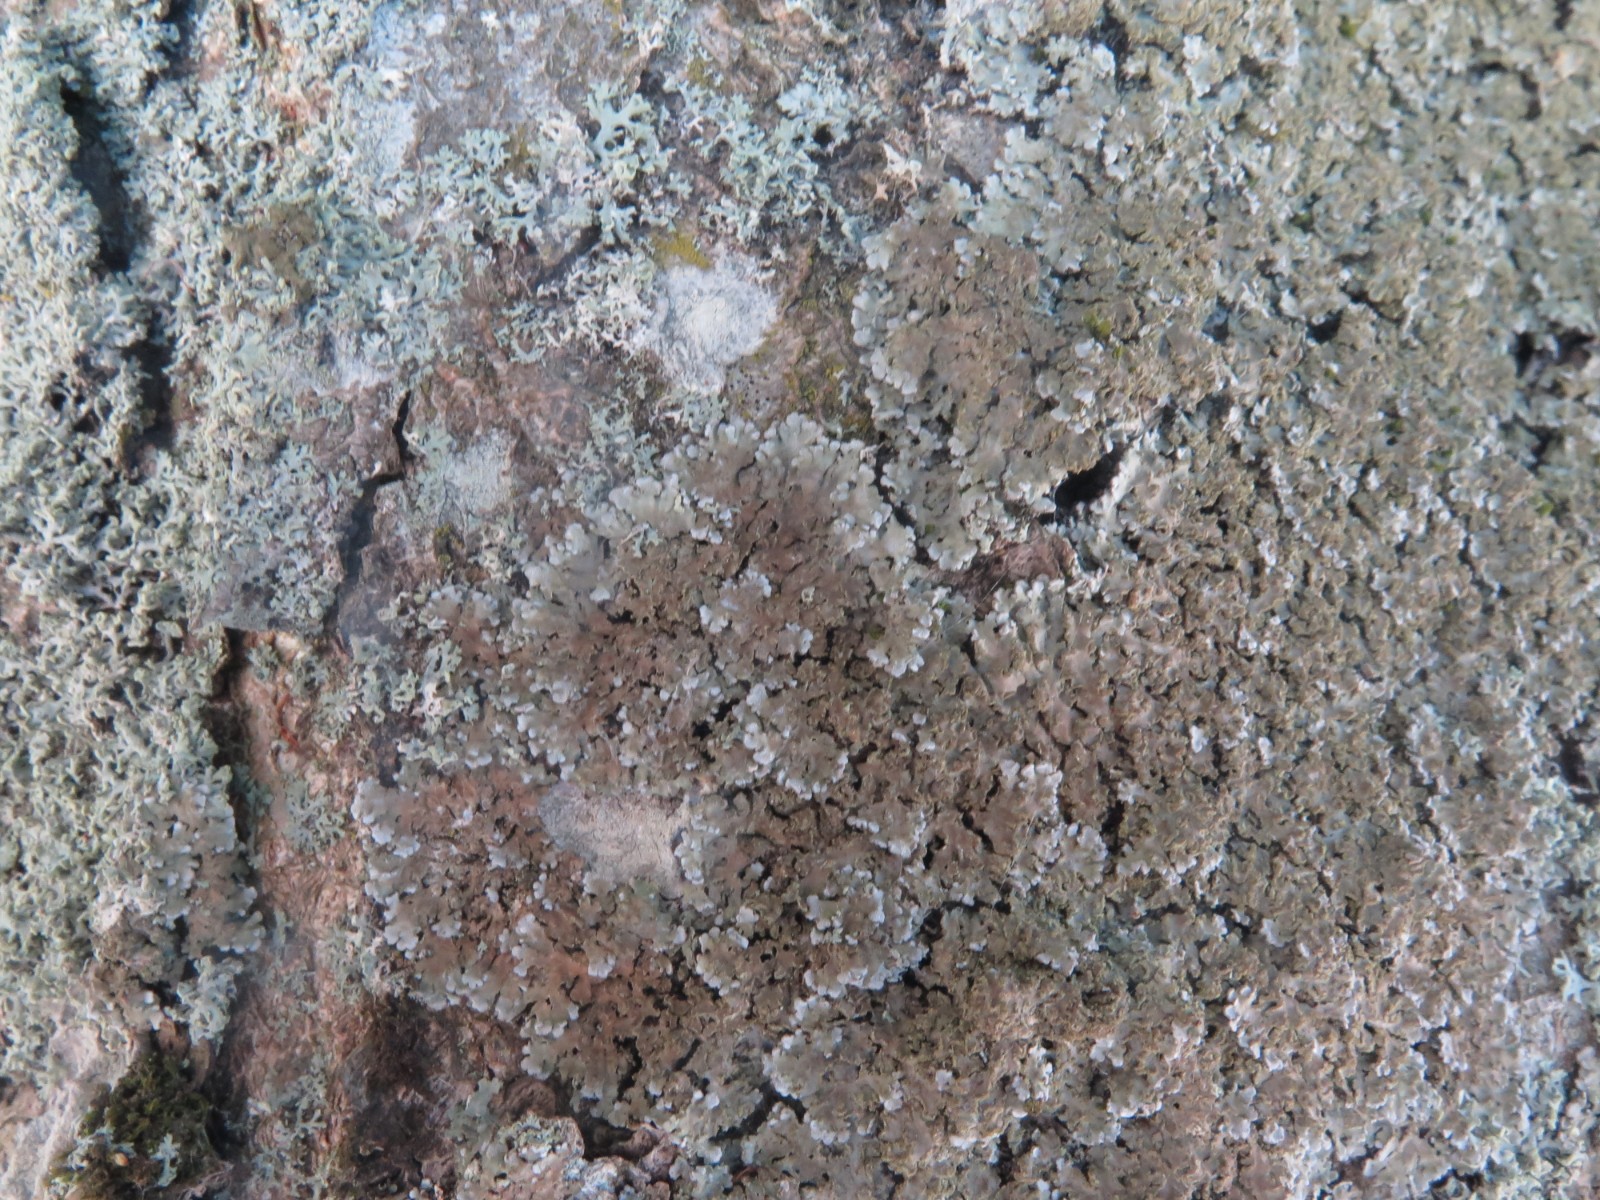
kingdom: Fungi
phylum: Ascomycota
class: Lecanoromycetes
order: Caliciales
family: Physciaceae
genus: Physconia
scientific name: Physconia perisidiosa
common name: liden dugrosetlav
